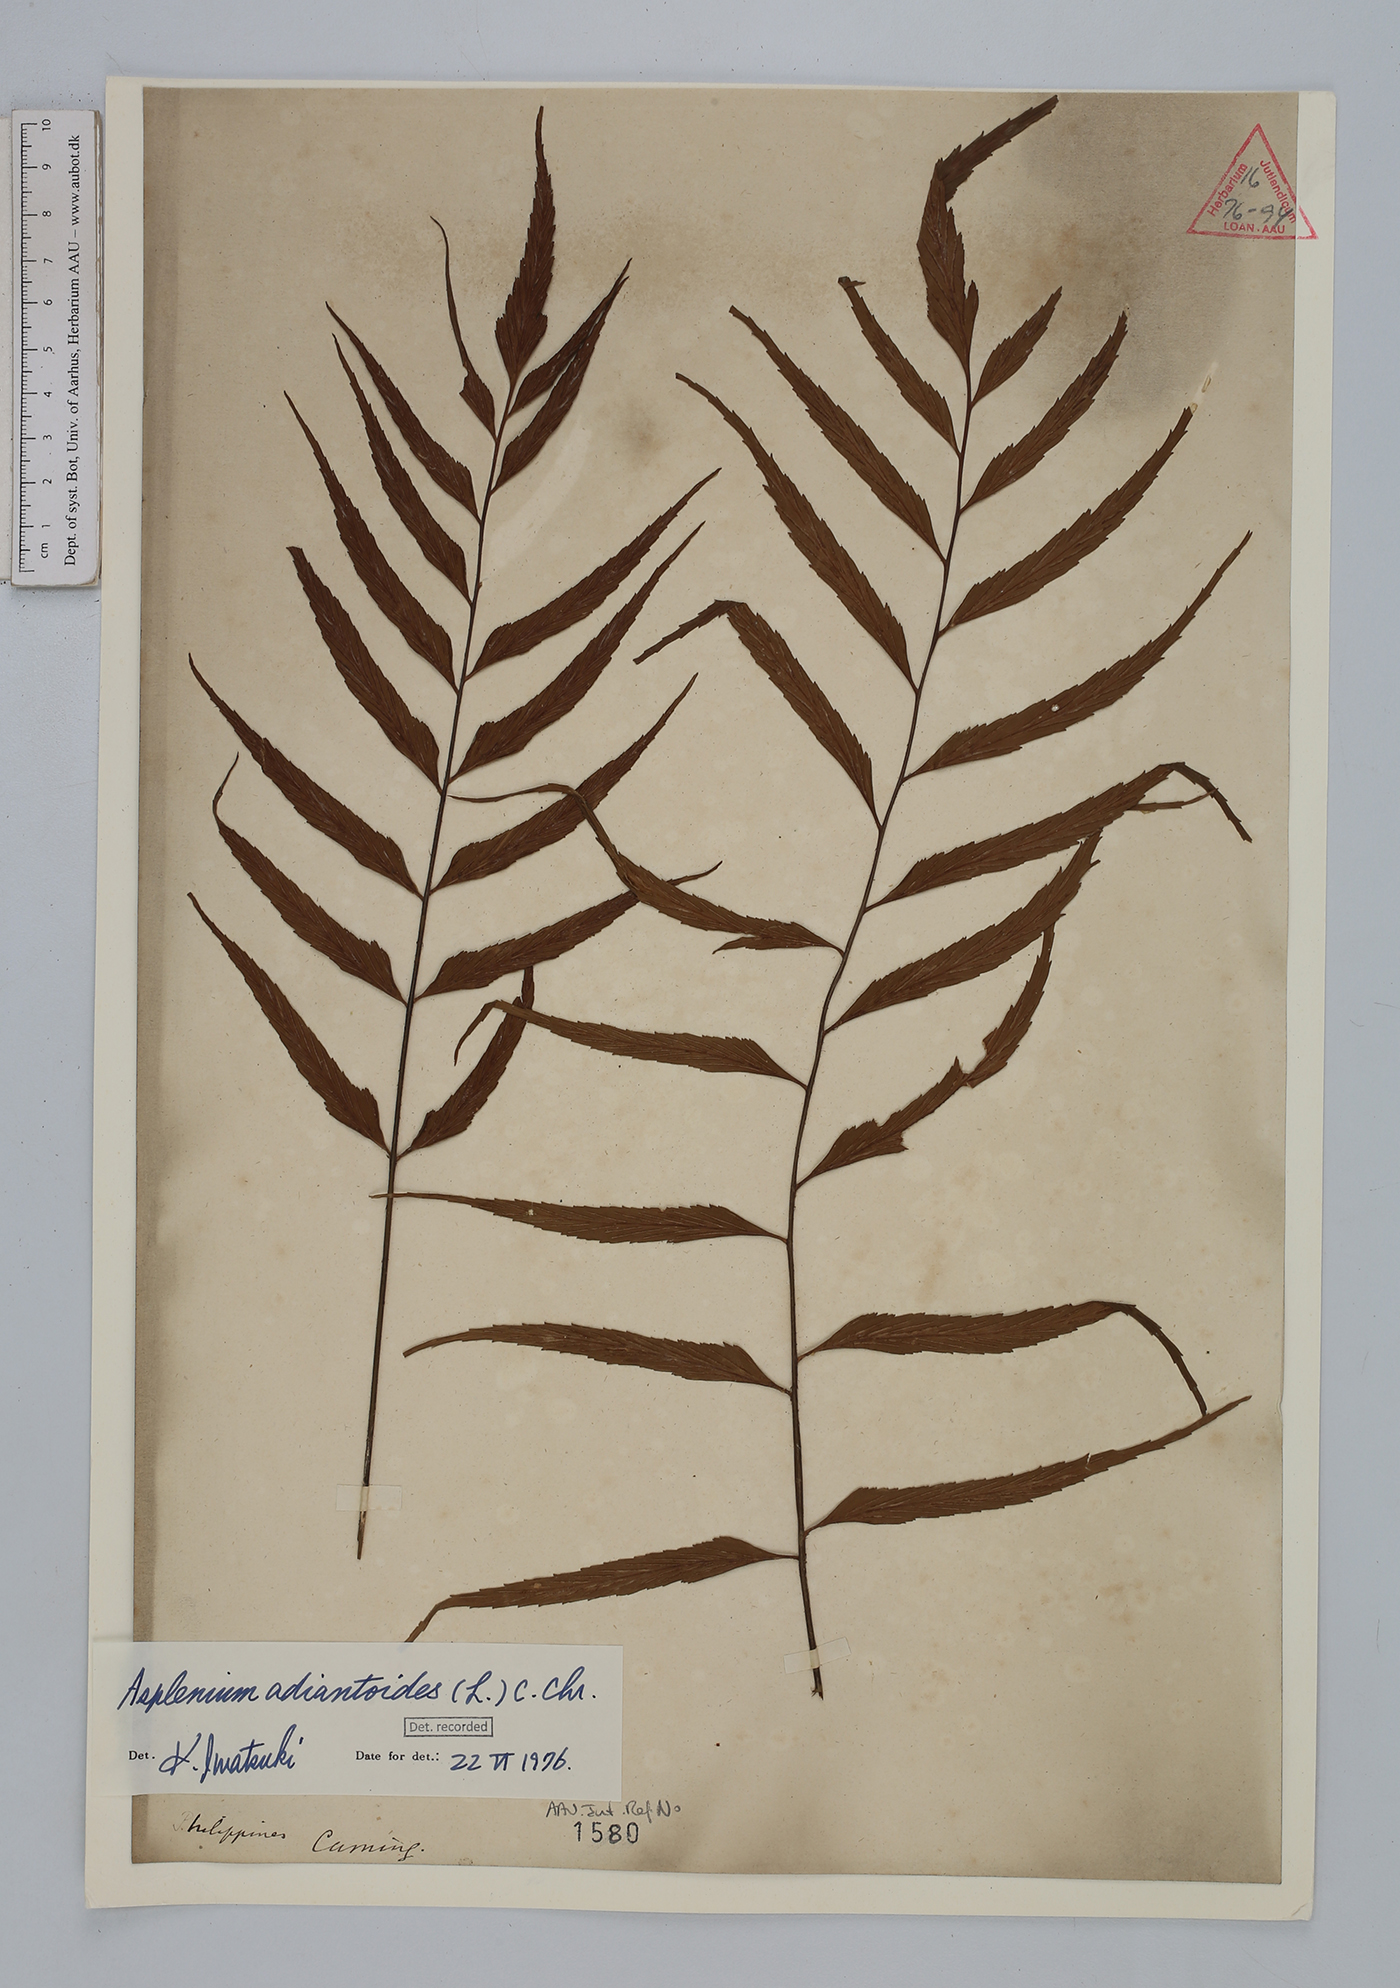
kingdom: Plantae
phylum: Tracheophyta
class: Polypodiopsida
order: Polypodiales
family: Aspleniaceae
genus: Asplenium
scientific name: Asplenium aethiopicum
